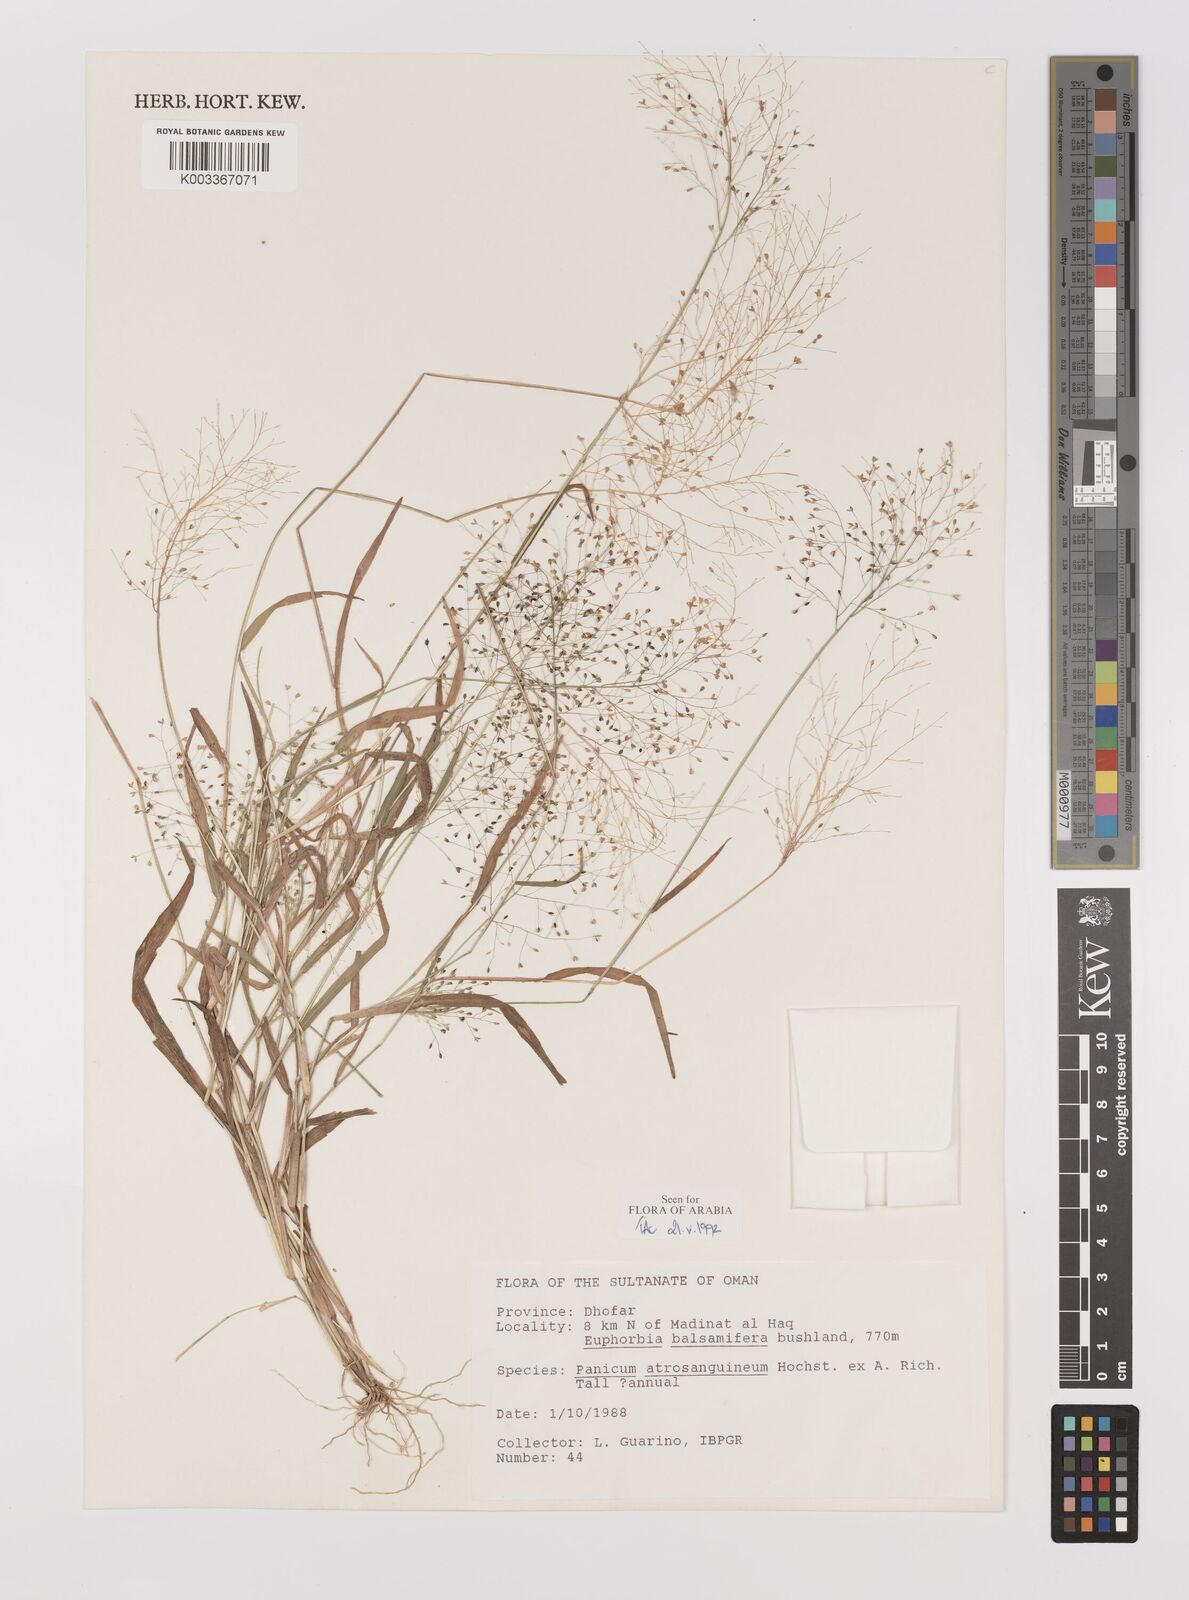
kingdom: Plantae
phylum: Tracheophyta
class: Liliopsida
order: Poales
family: Poaceae
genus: Panicum
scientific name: Panicum atrosanguineum
